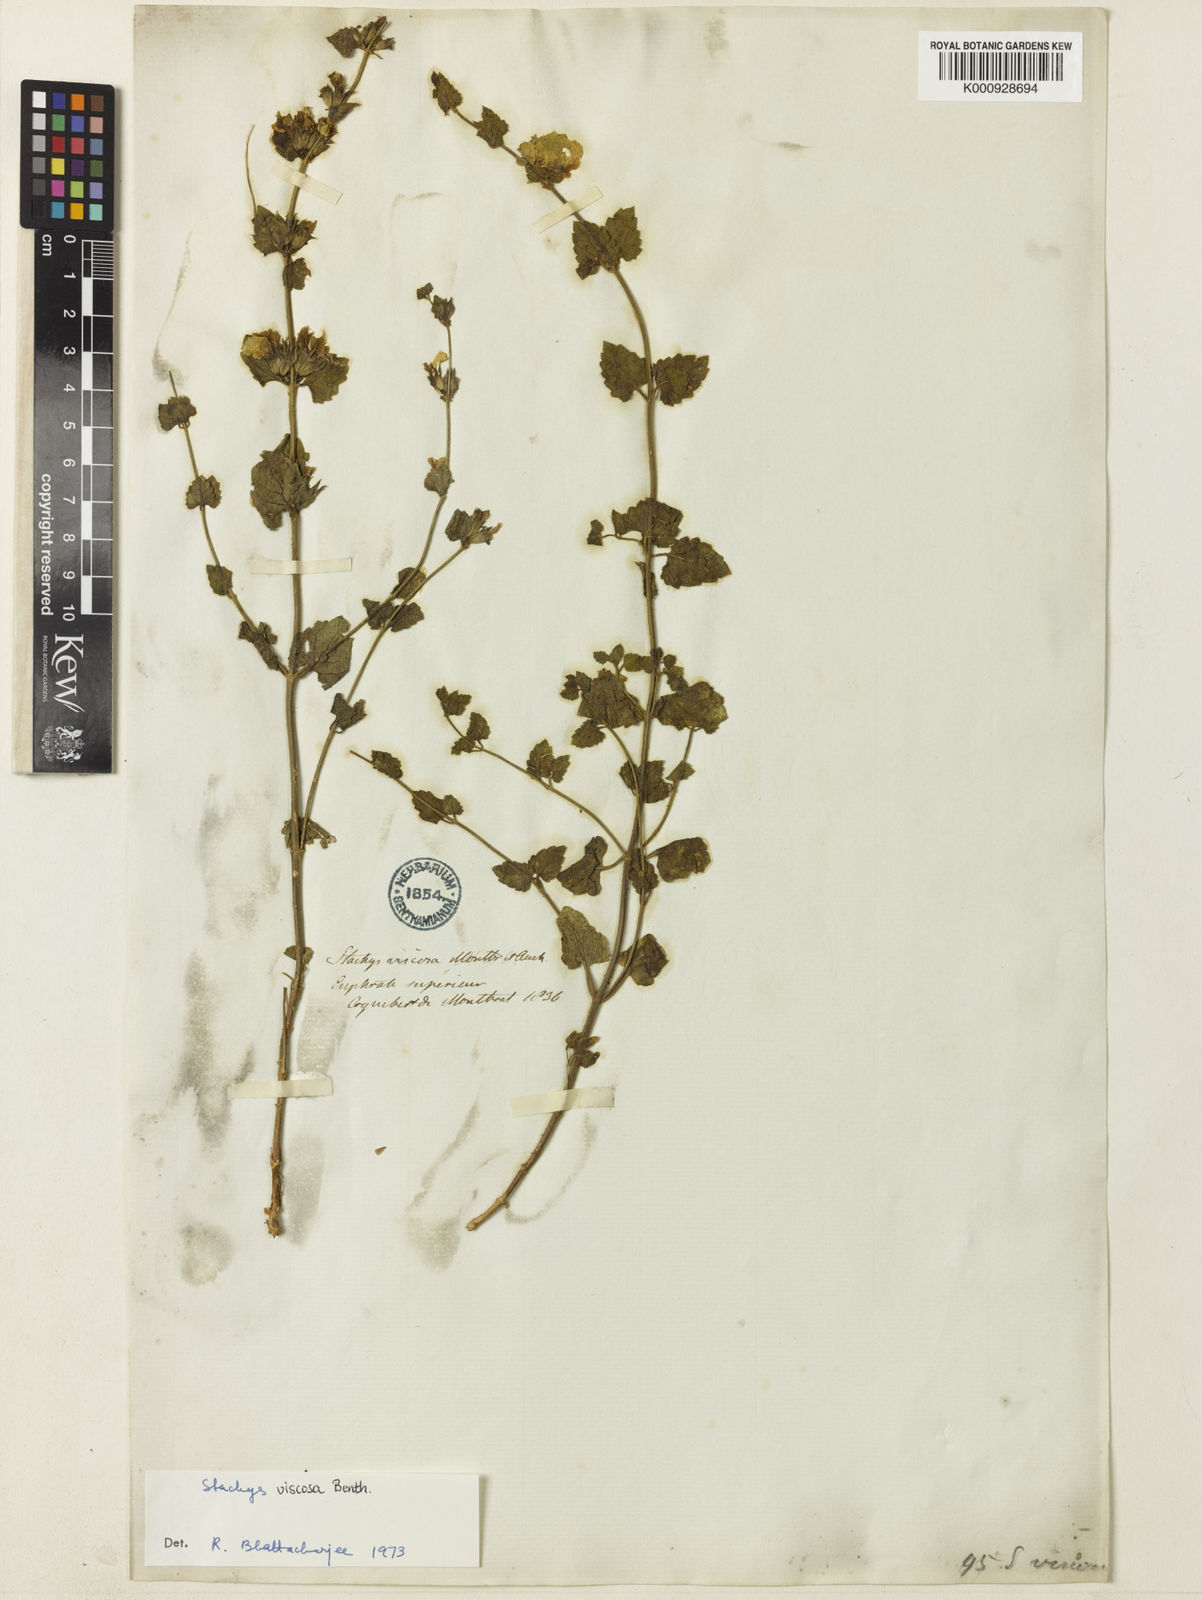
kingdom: Plantae
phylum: Tracheophyta
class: Magnoliopsida
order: Lamiales
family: Lamiaceae
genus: Stachys
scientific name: Stachys viscosa
